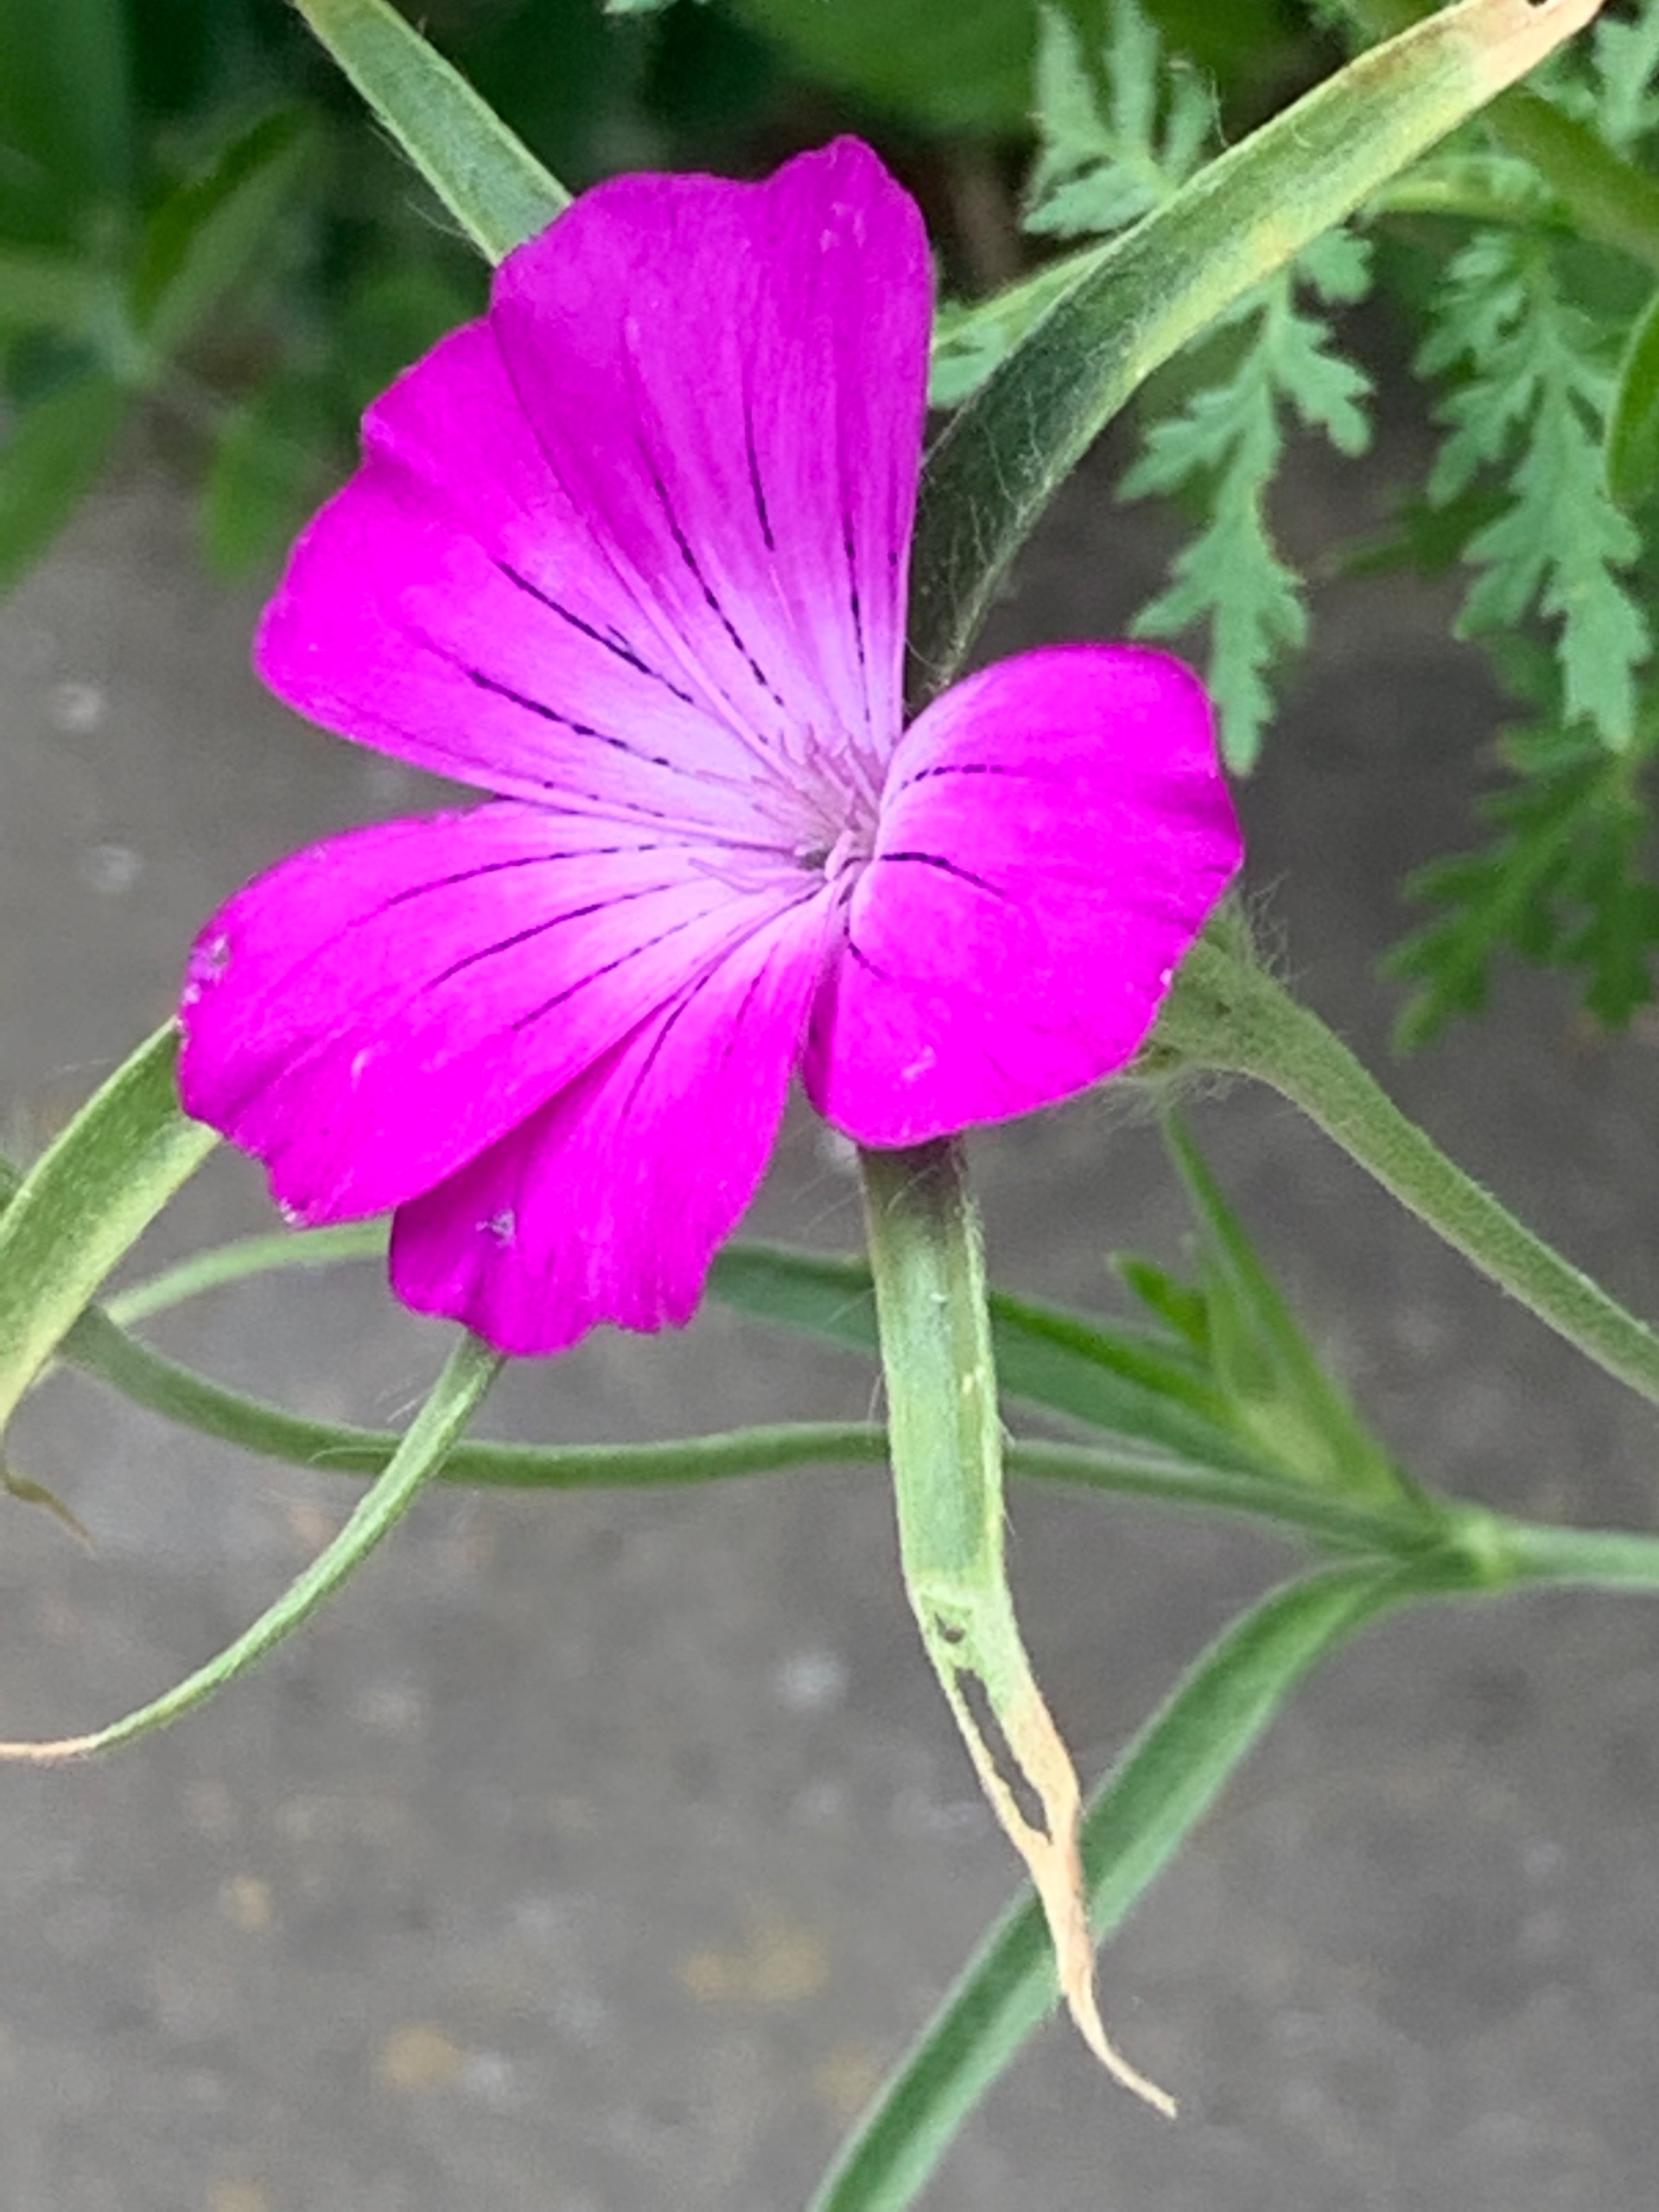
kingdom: Plantae
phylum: Tracheophyta
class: Magnoliopsida
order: Caryophyllales
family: Caryophyllaceae
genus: Agrostemma
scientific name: Agrostemma githago
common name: Klinte
